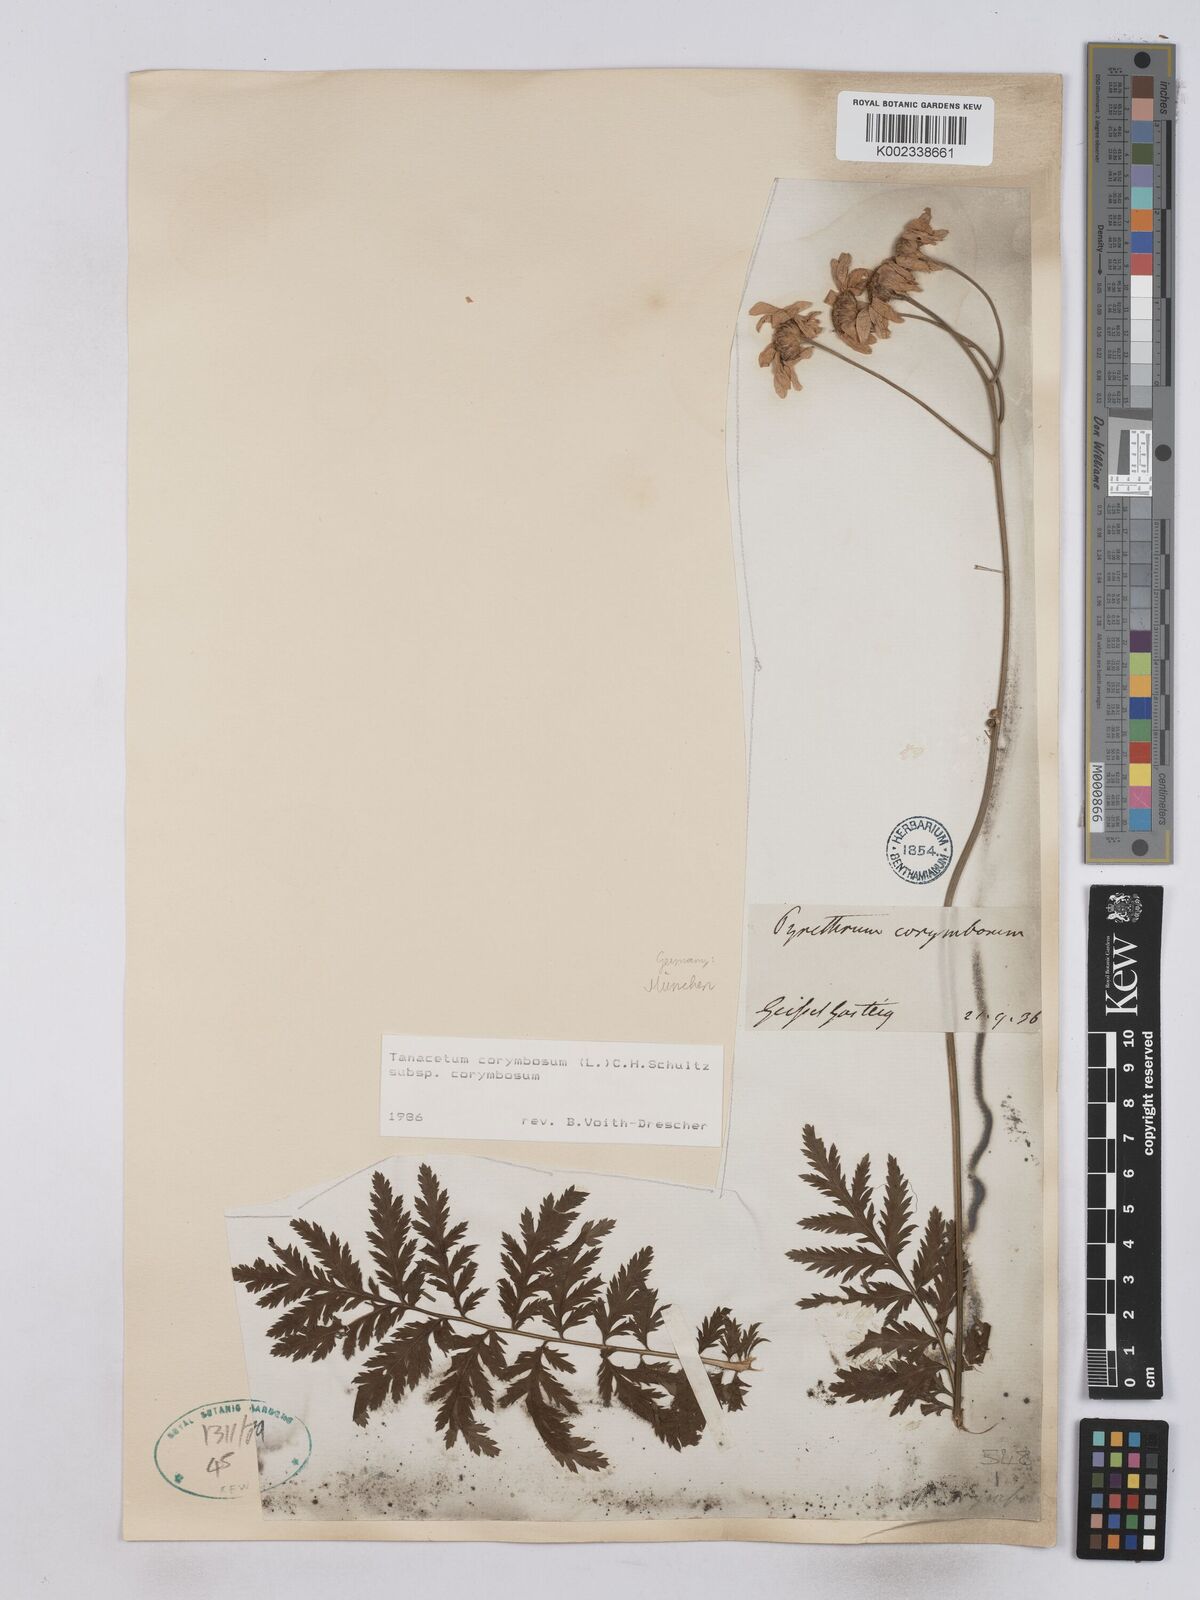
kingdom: Plantae
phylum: Tracheophyta
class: Magnoliopsida
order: Asterales
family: Asteraceae
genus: Tanacetum
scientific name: Tanacetum corymbosum
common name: Scentless feverfew
